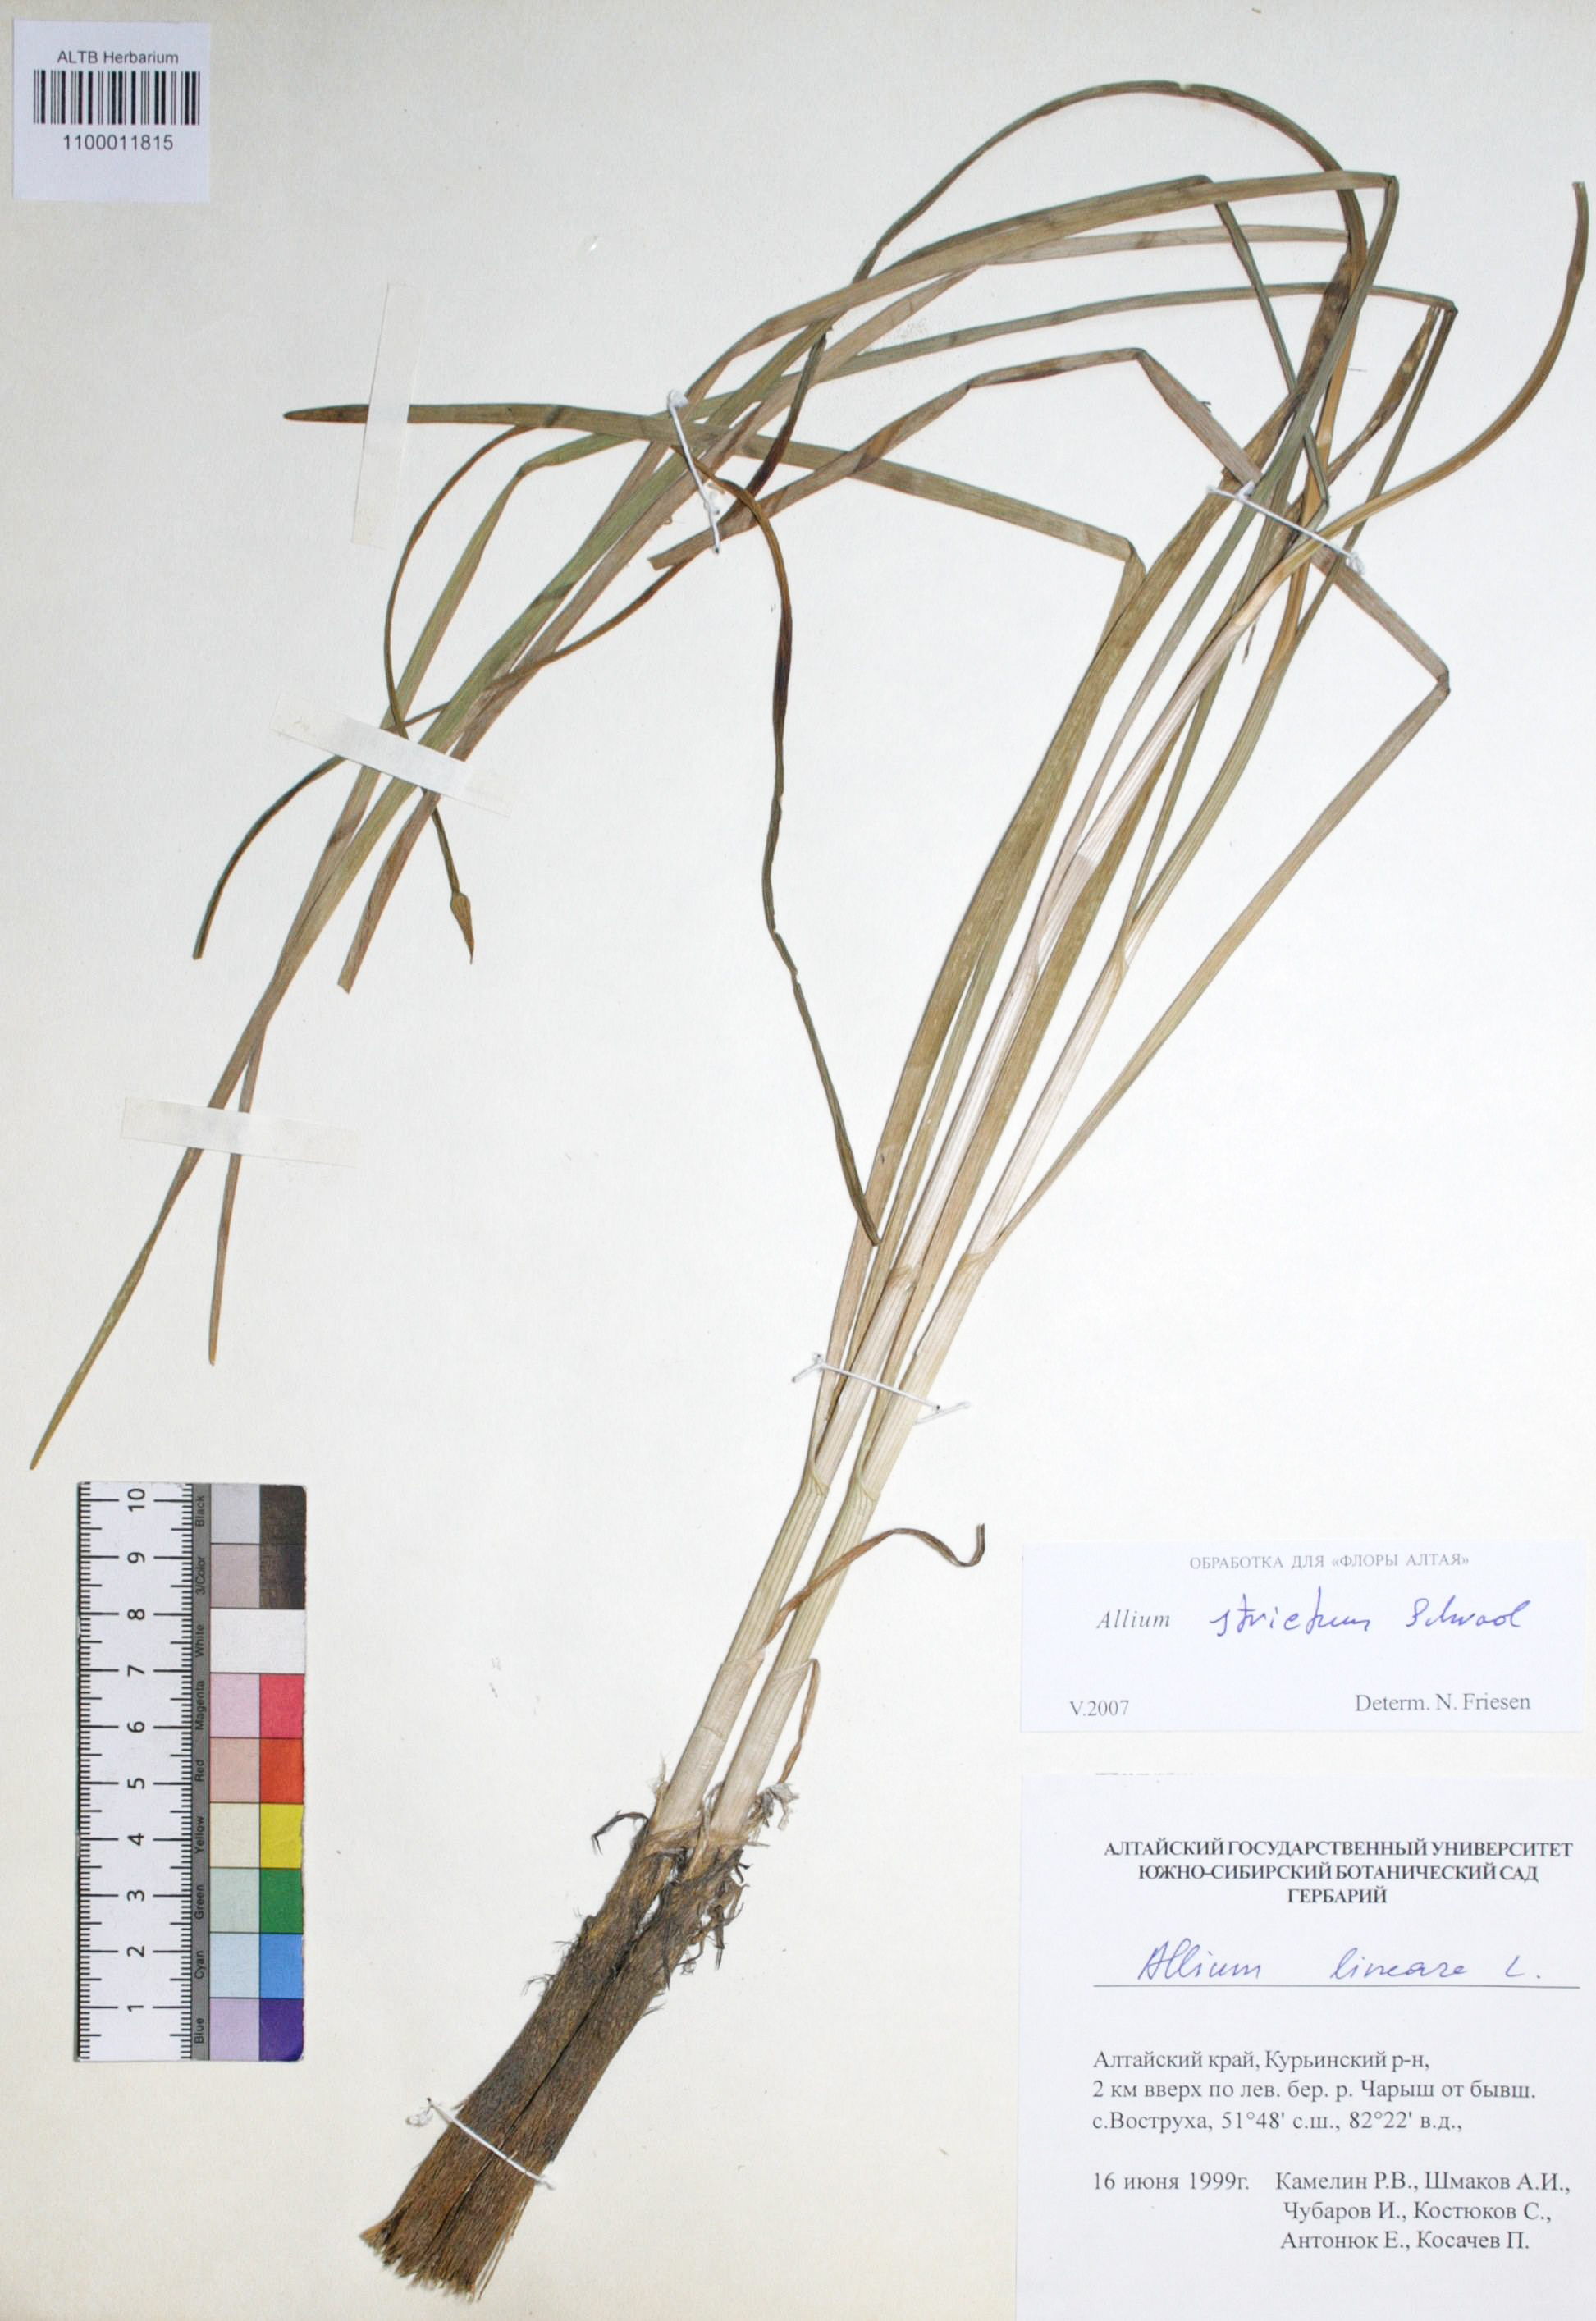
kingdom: Plantae
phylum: Tracheophyta
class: Liliopsida
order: Asparagales
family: Amaryllidaceae
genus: Allium
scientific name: Allium strictum
